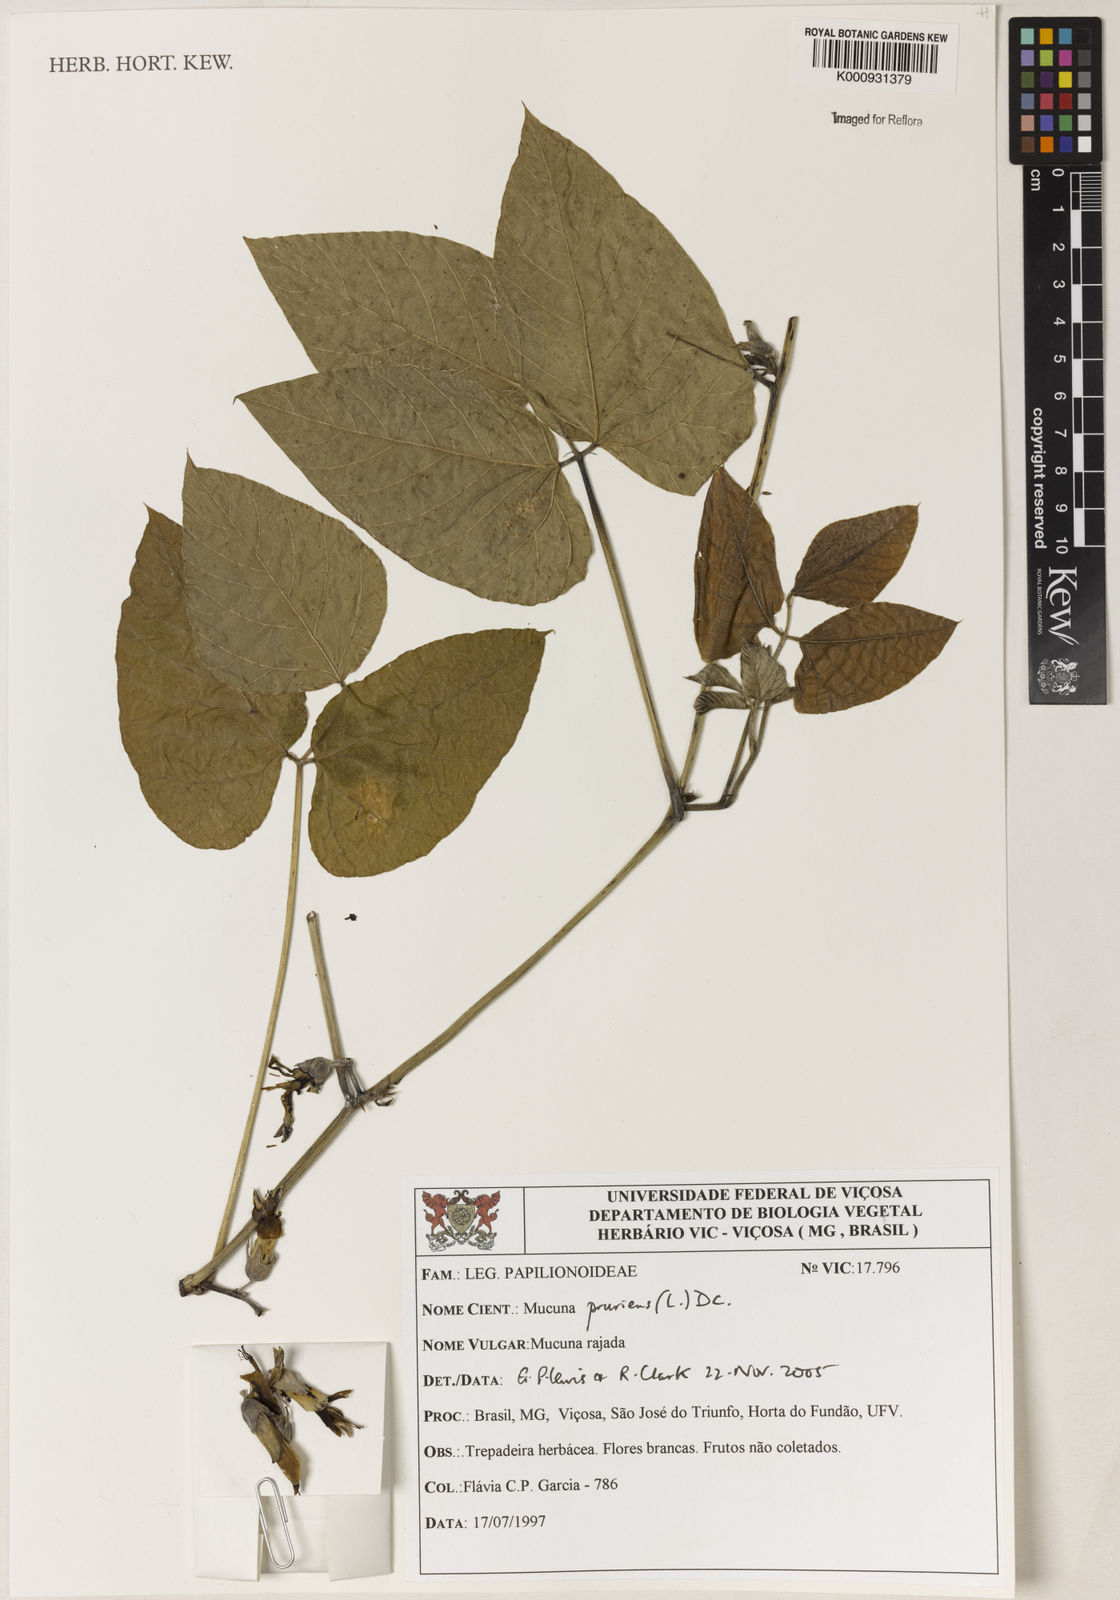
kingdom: Plantae
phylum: Tracheophyta
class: Magnoliopsida
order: Fabales
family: Fabaceae
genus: Mucuna
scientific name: Mucuna pruriens
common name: Cow-itch
